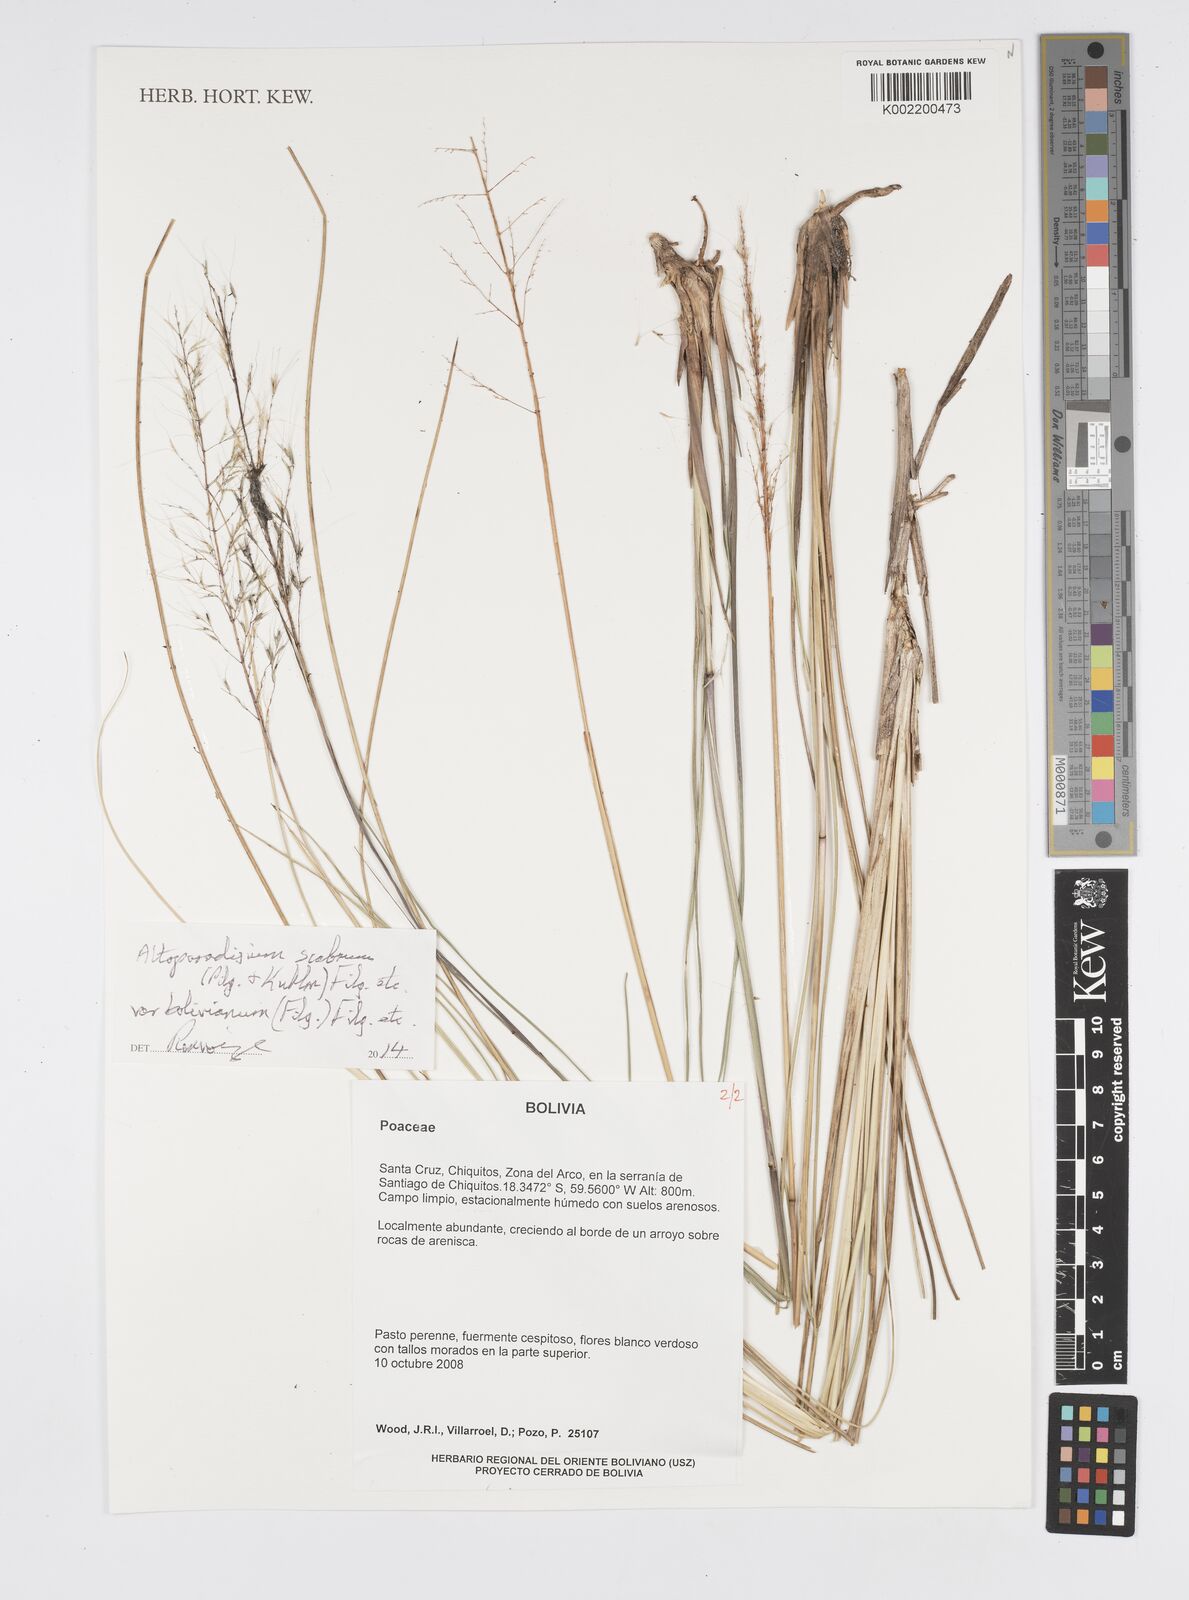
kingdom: Plantae
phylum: Tracheophyta
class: Liliopsida
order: Poales
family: Poaceae
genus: Arthropogon
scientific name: Arthropogon
